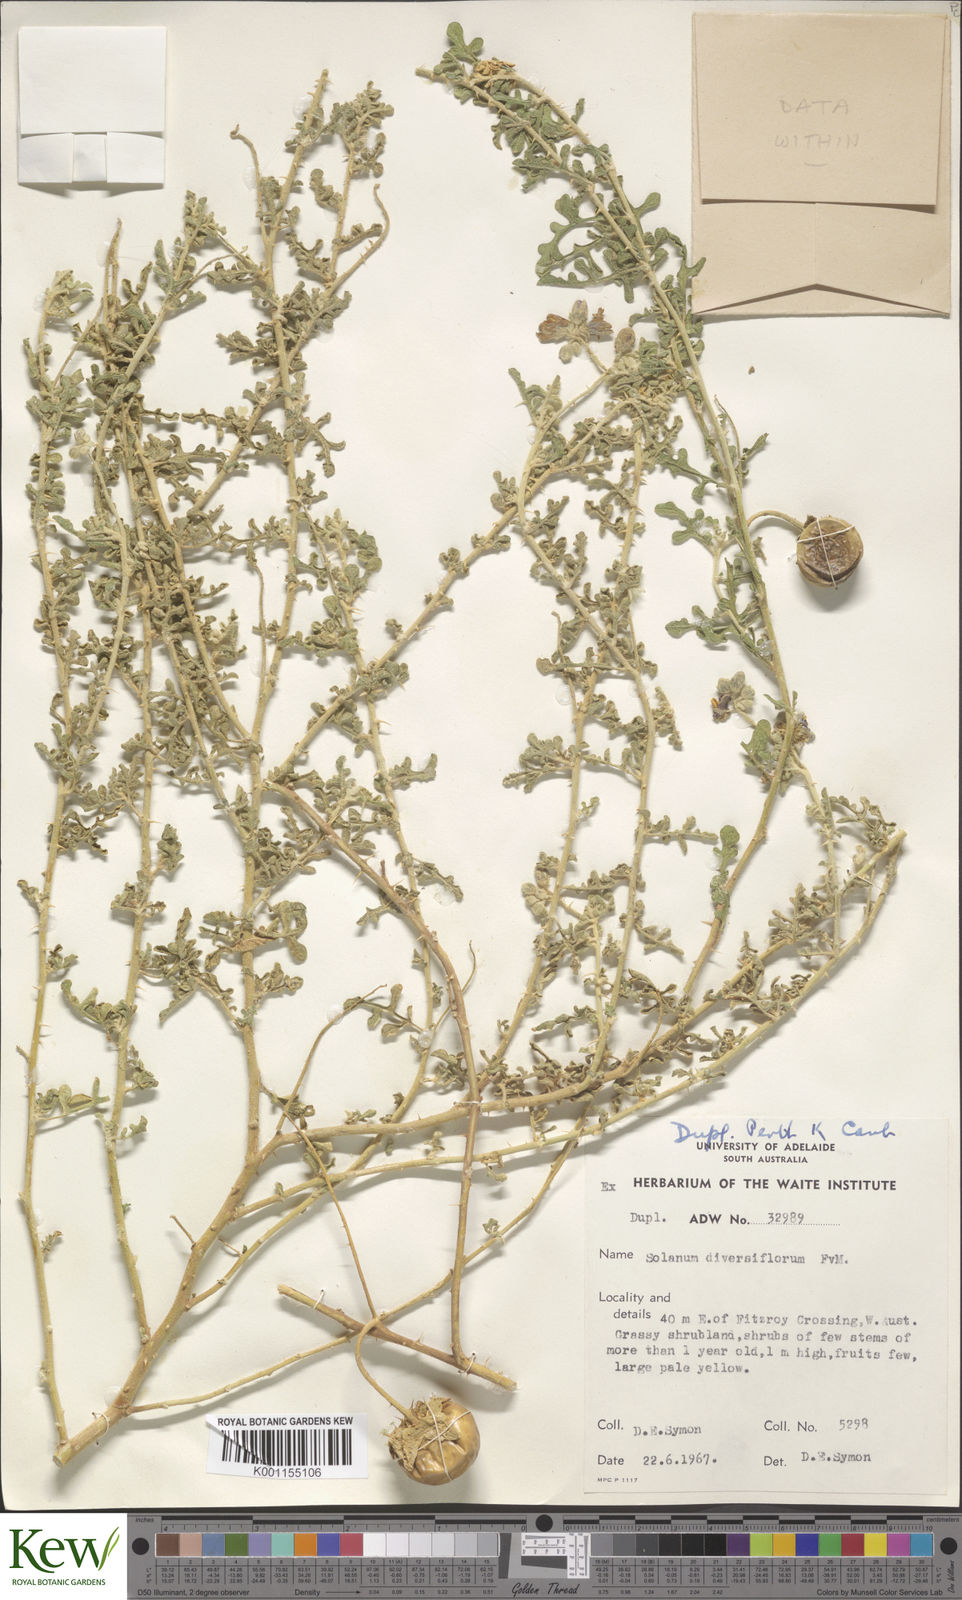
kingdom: Plantae
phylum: Tracheophyta
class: Magnoliopsida
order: Solanales
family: Solanaceae
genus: Solanum
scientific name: Solanum diversiflorum
